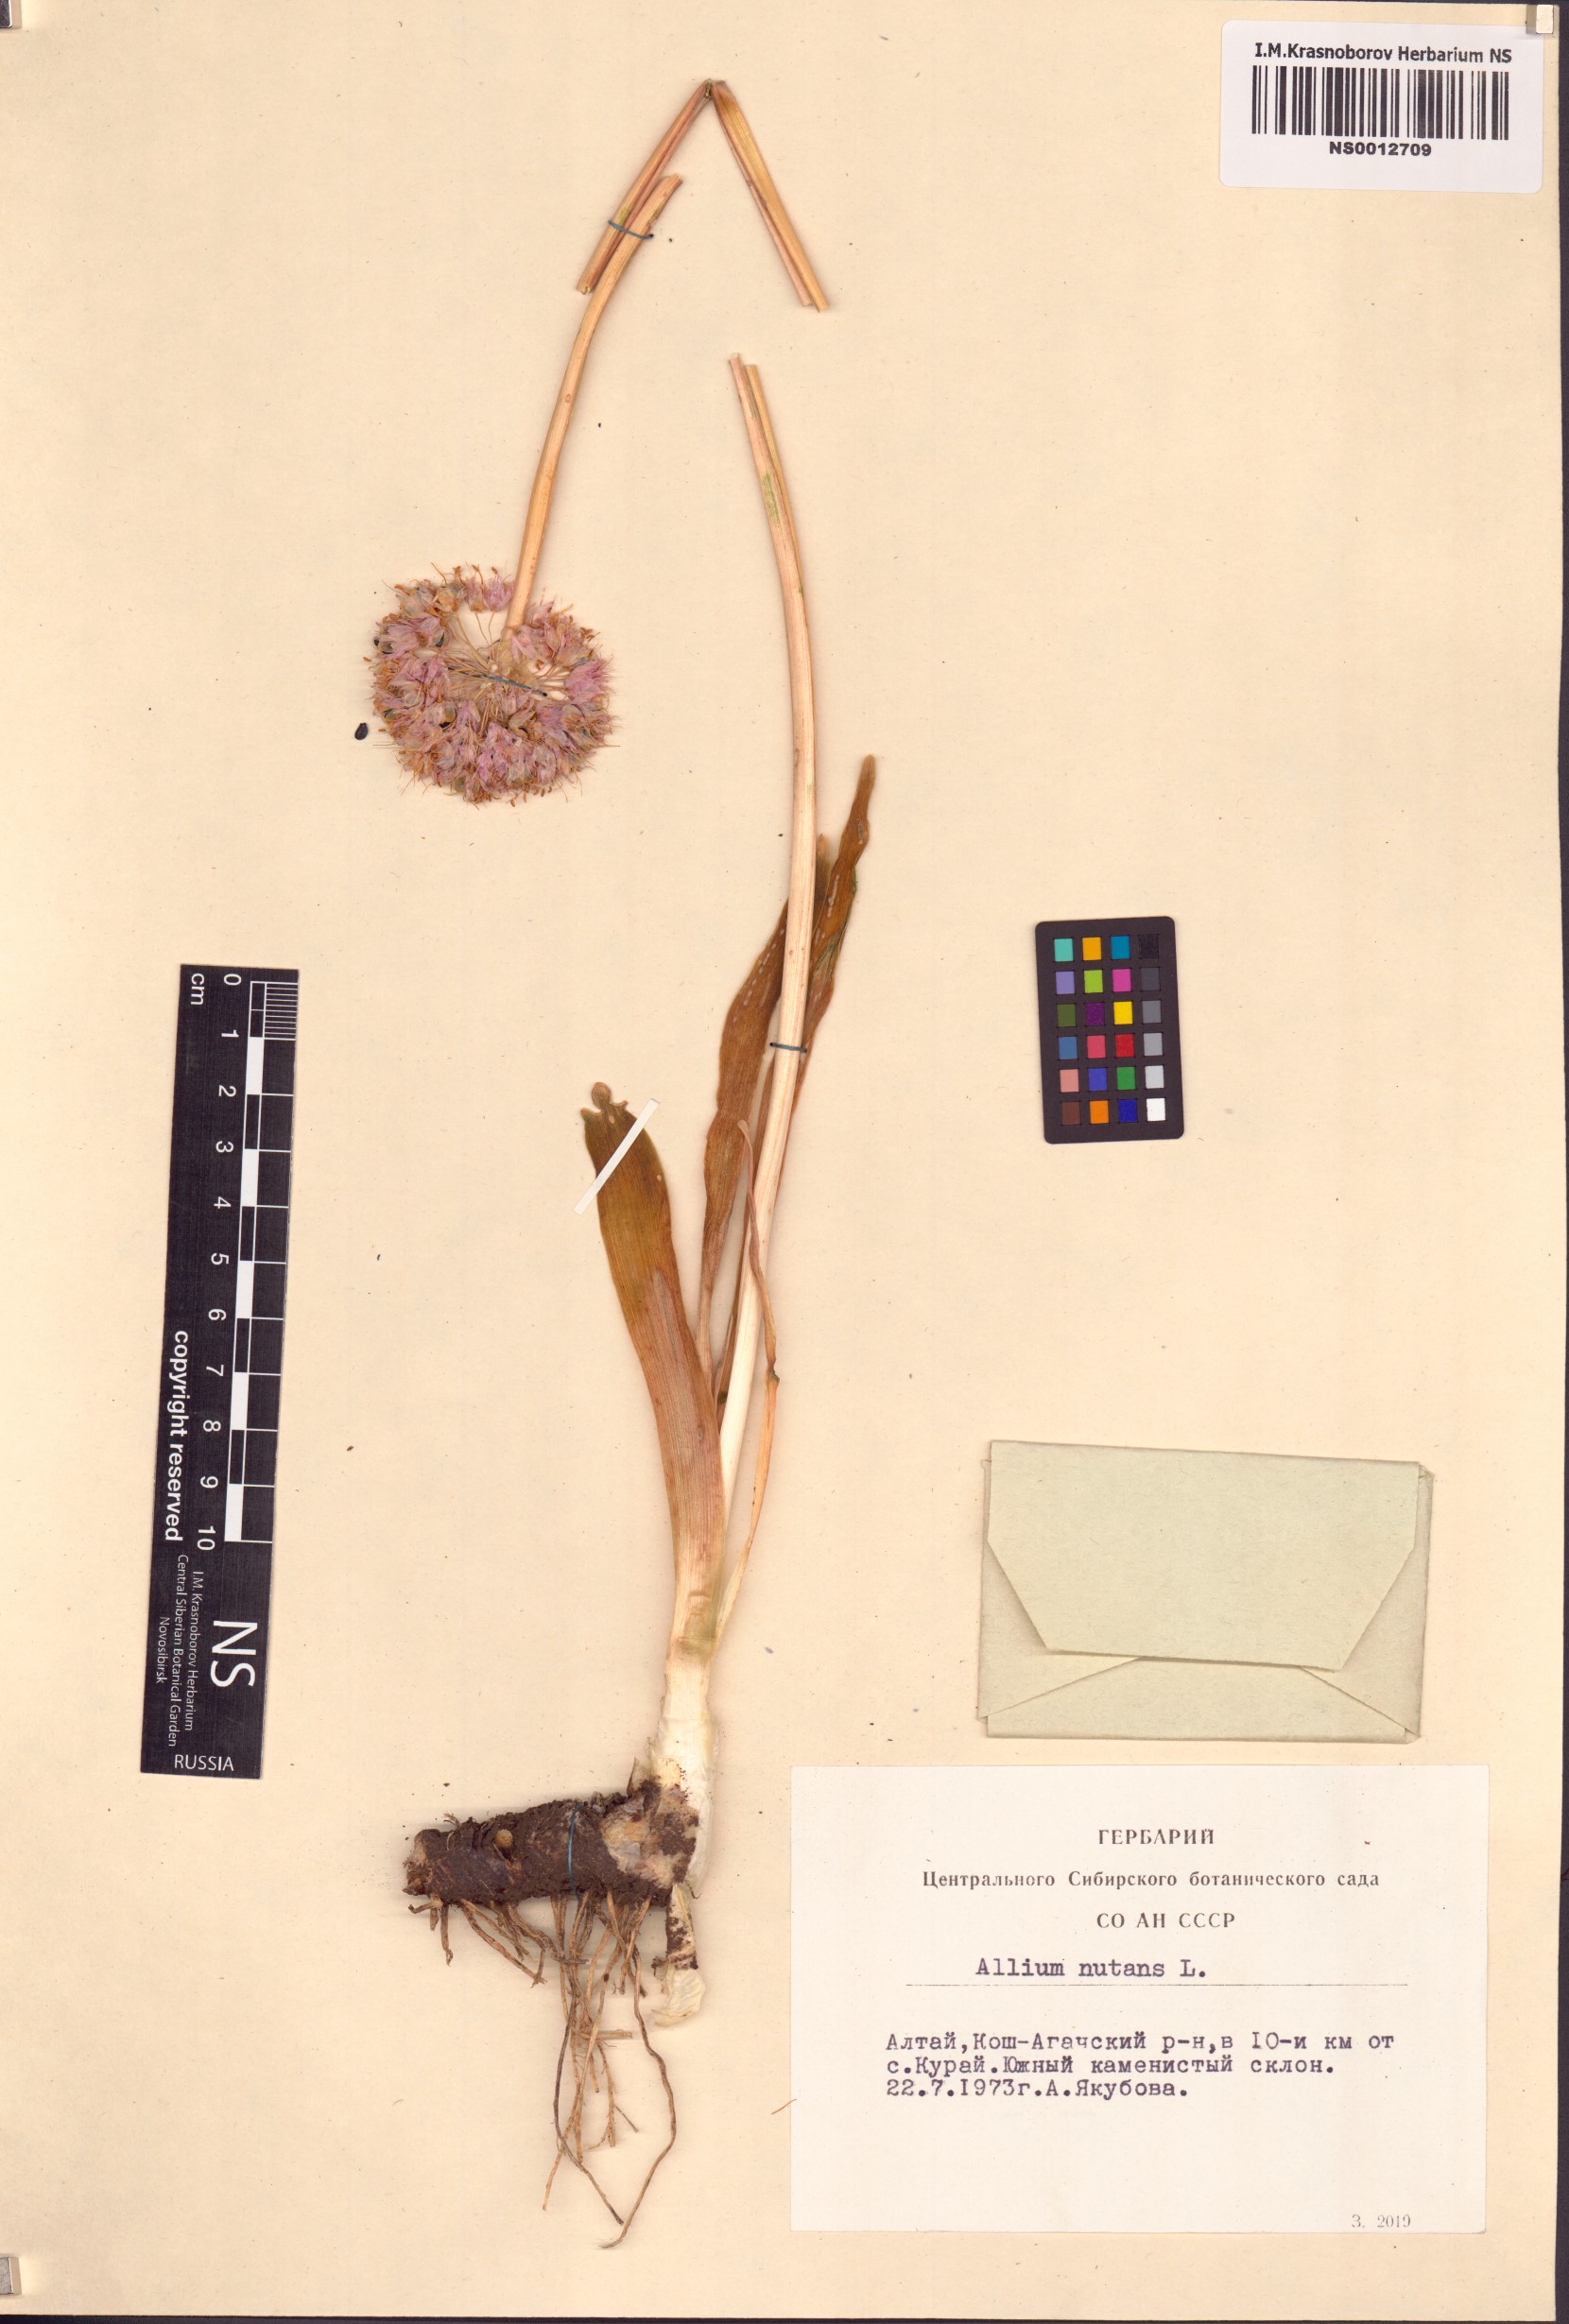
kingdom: Plantae
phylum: Tracheophyta
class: Liliopsida
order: Asparagales
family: Amaryllidaceae
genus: Allium
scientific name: Allium nutans
